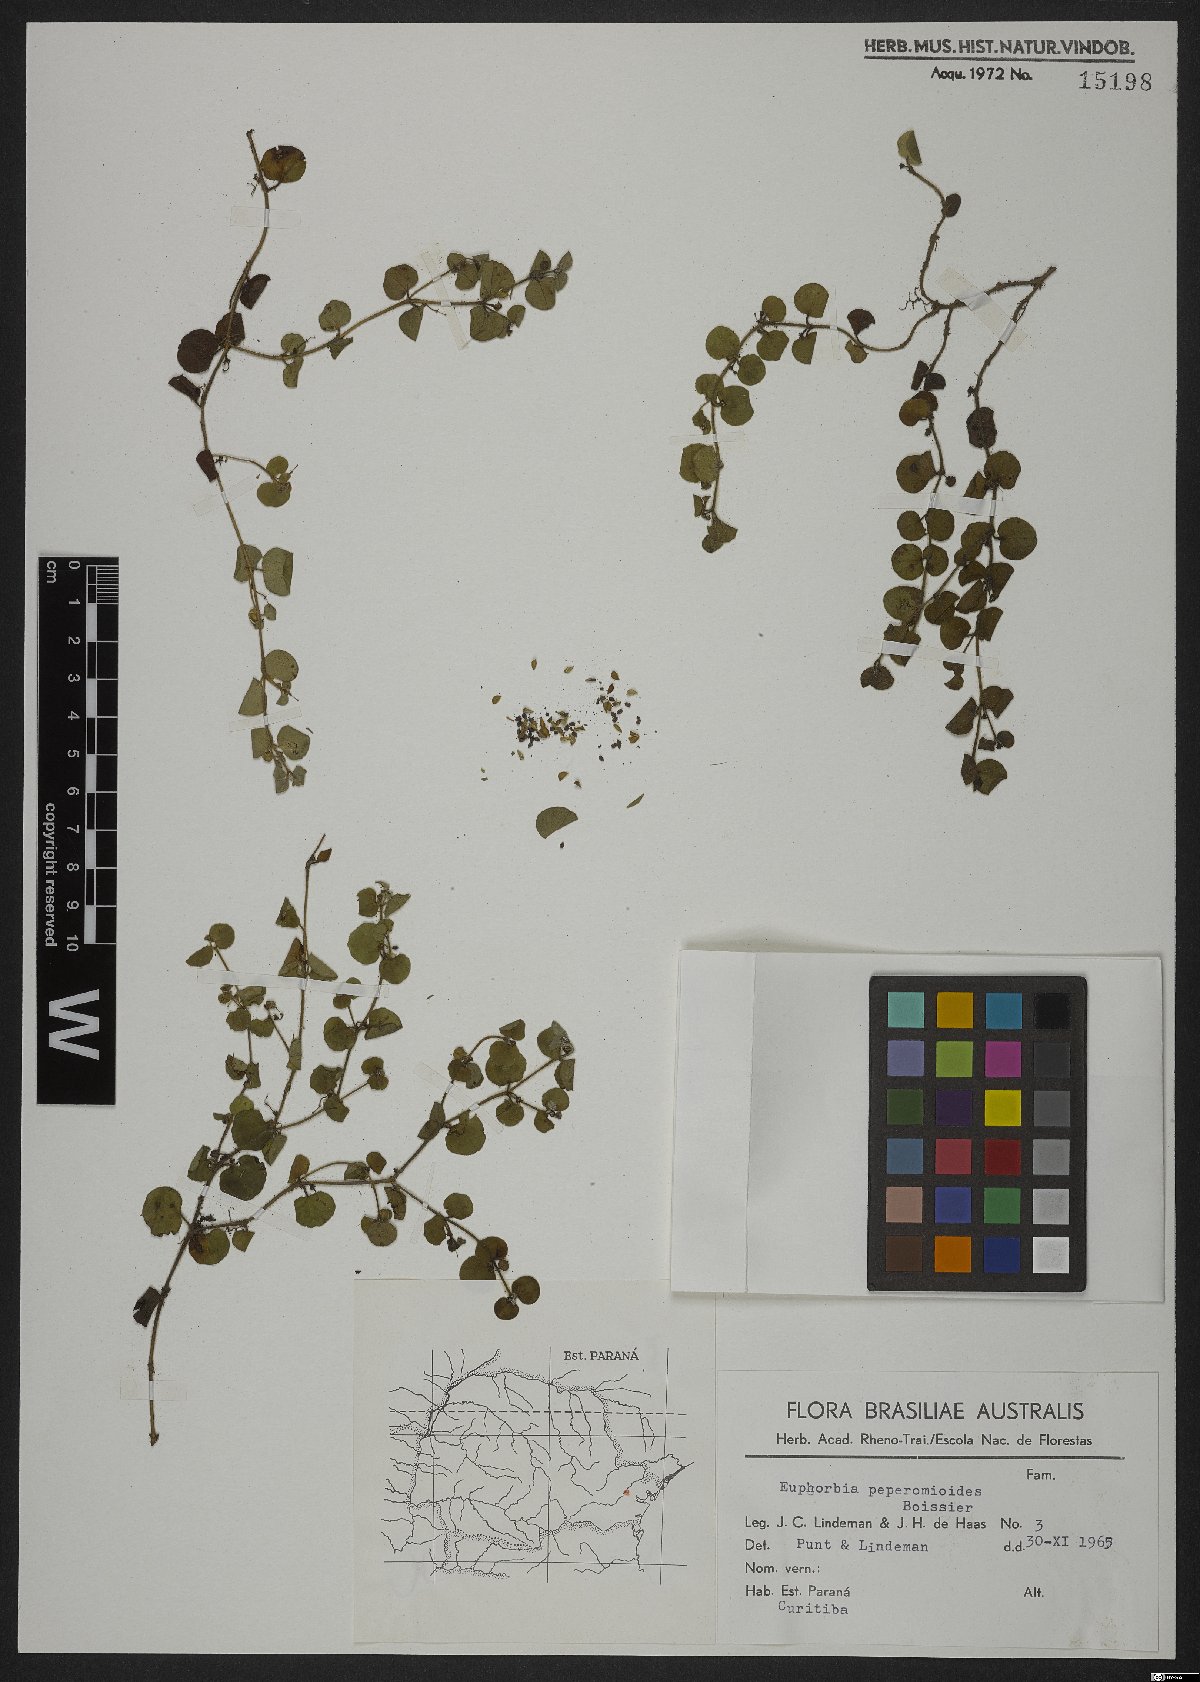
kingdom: Plantae
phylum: Tracheophyta
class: Magnoliopsida
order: Malpighiales
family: Euphorbiaceae
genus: Euphorbia
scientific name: Euphorbia peperomioides
